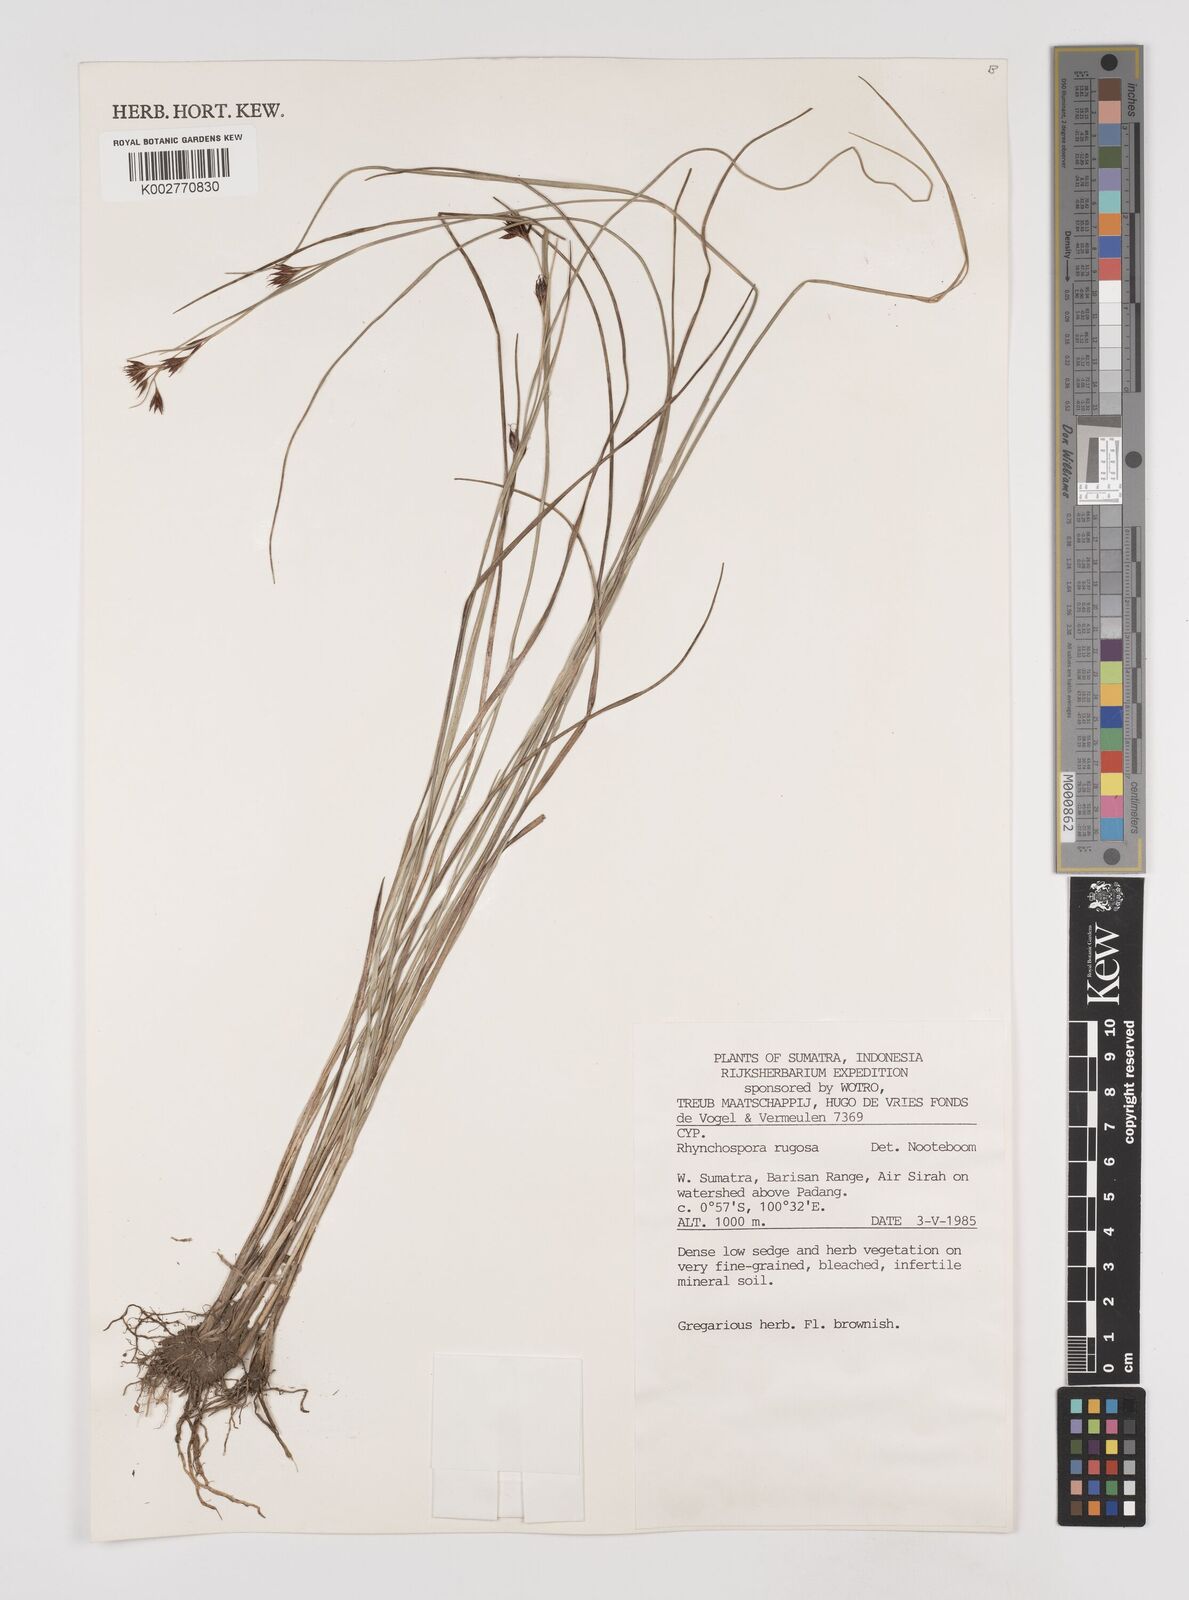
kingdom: Plantae
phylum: Tracheophyta
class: Liliopsida
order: Poales
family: Cyperaceae
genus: Rhynchospora
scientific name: Rhynchospora rugosa
